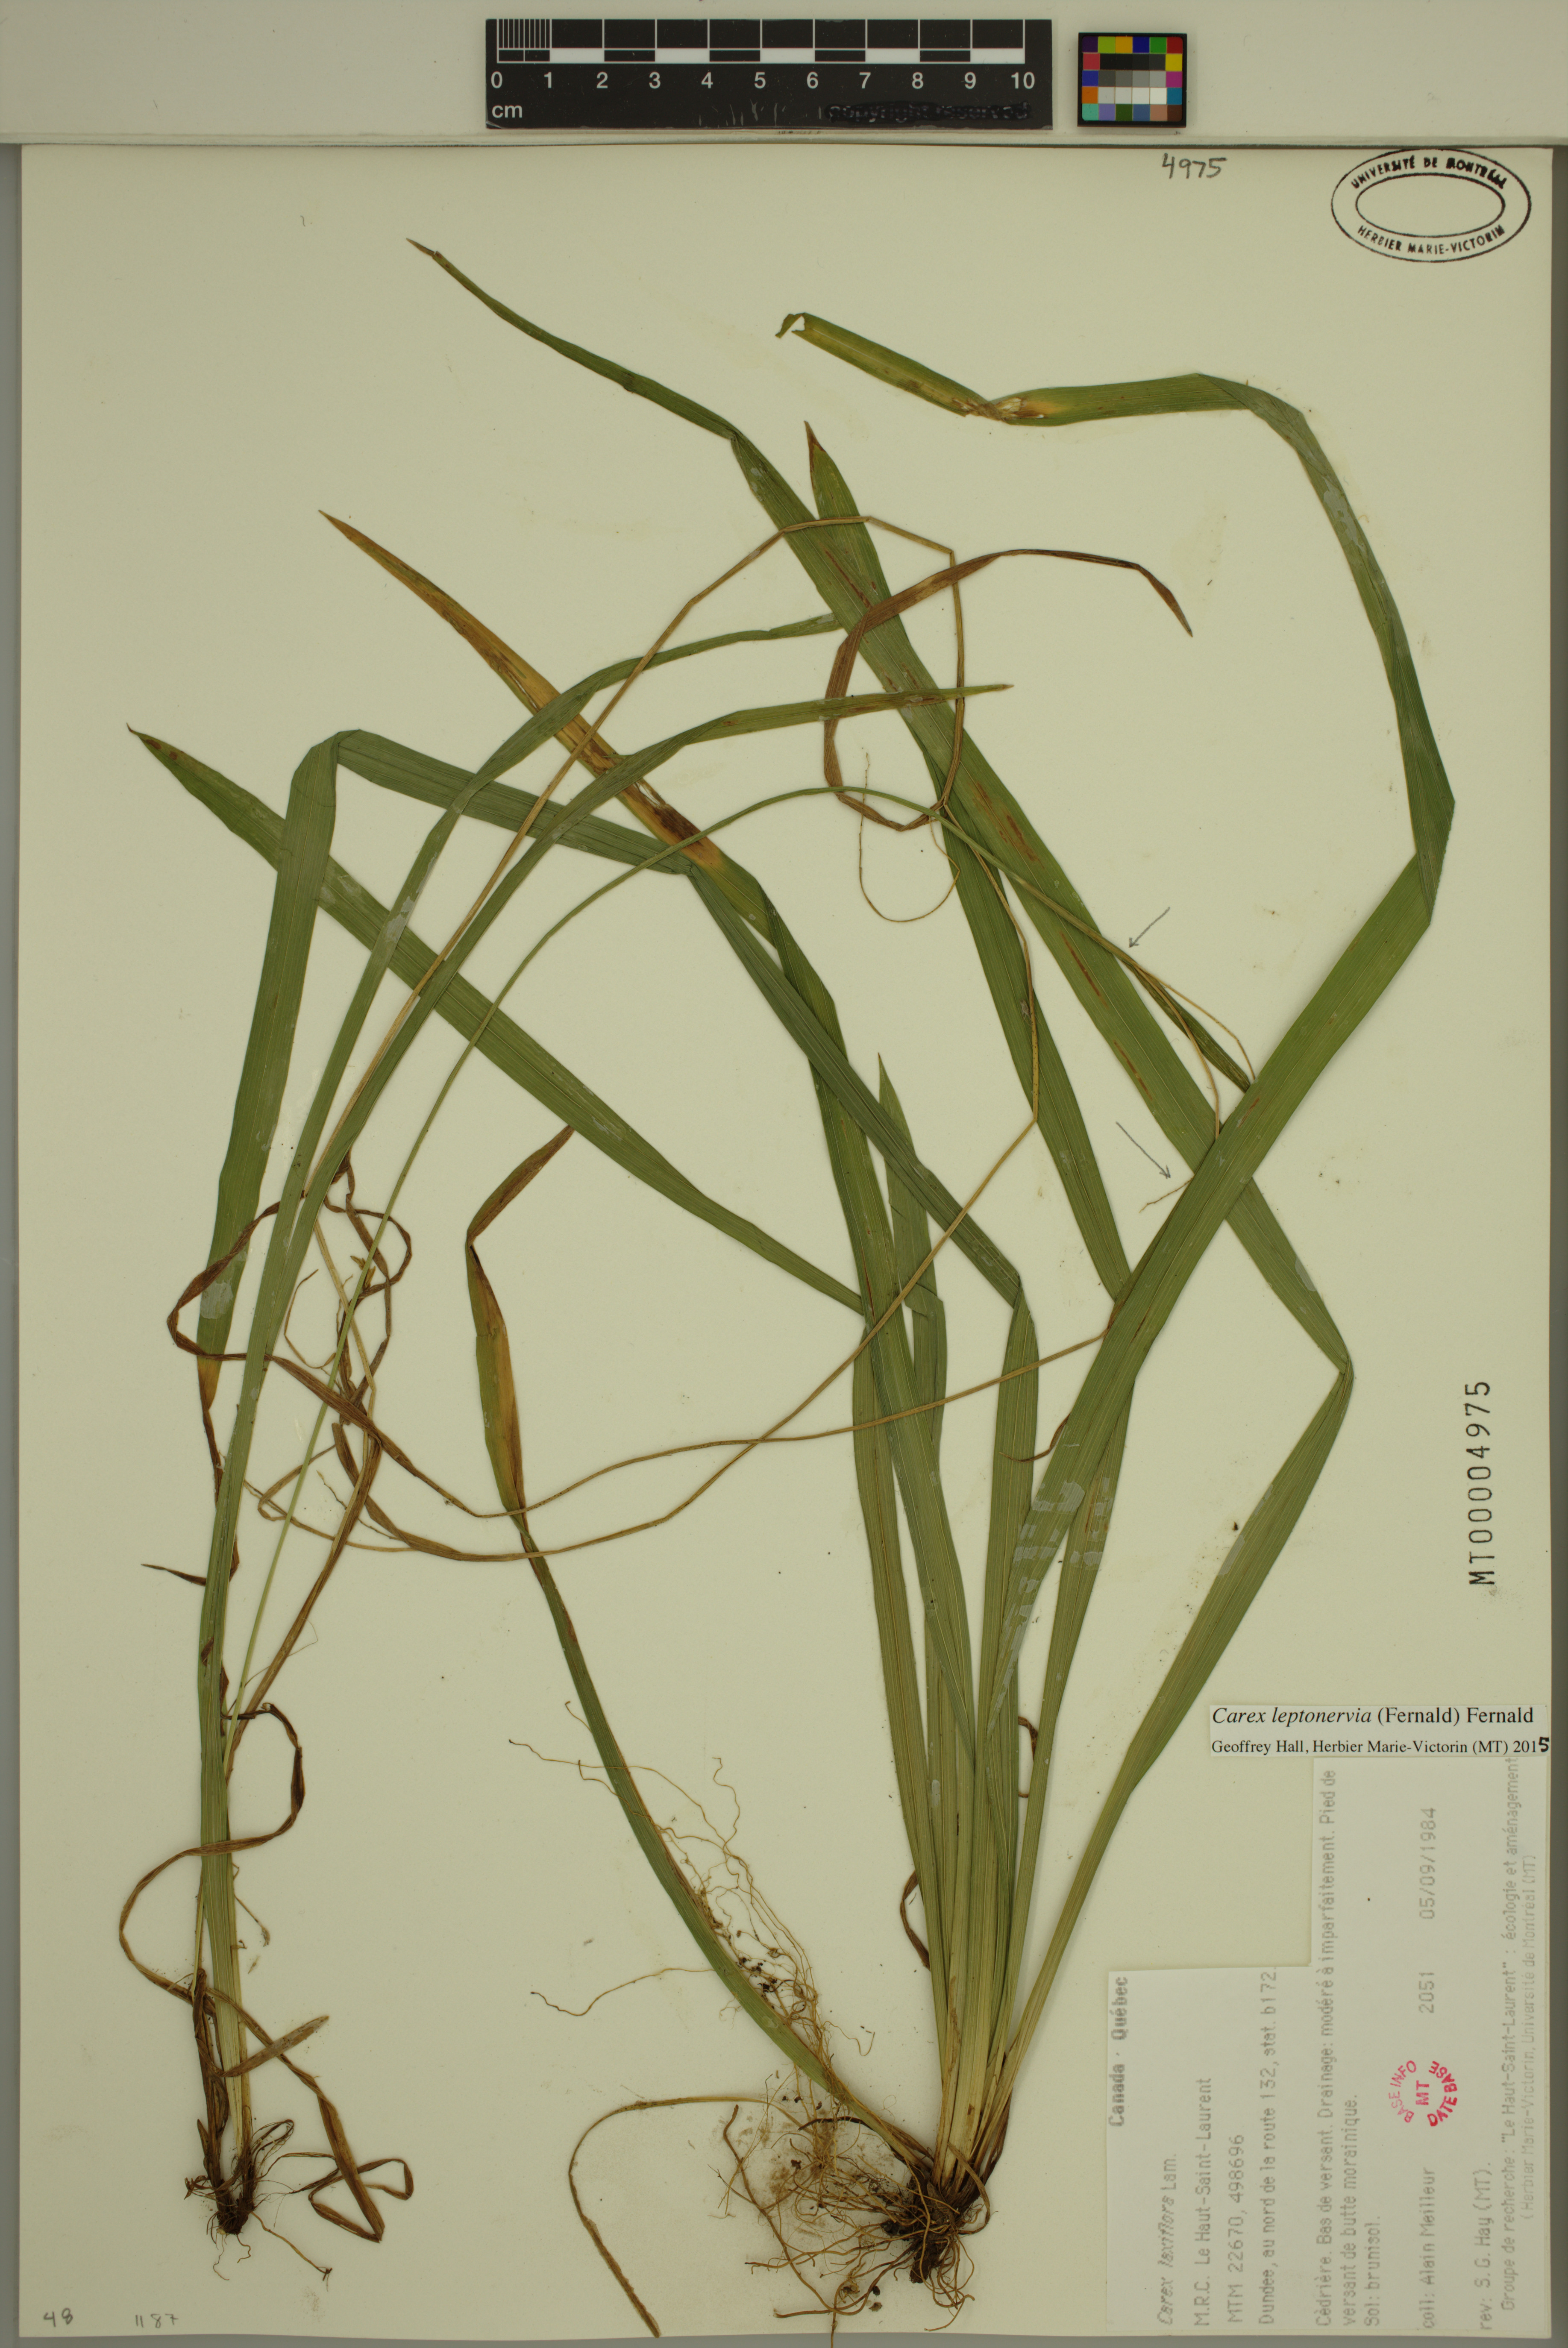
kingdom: Plantae
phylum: Tracheophyta
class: Liliopsida
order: Poales
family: Cyperaceae
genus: Carex
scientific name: Carex leptonervia
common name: Few-nerved wood sedge
